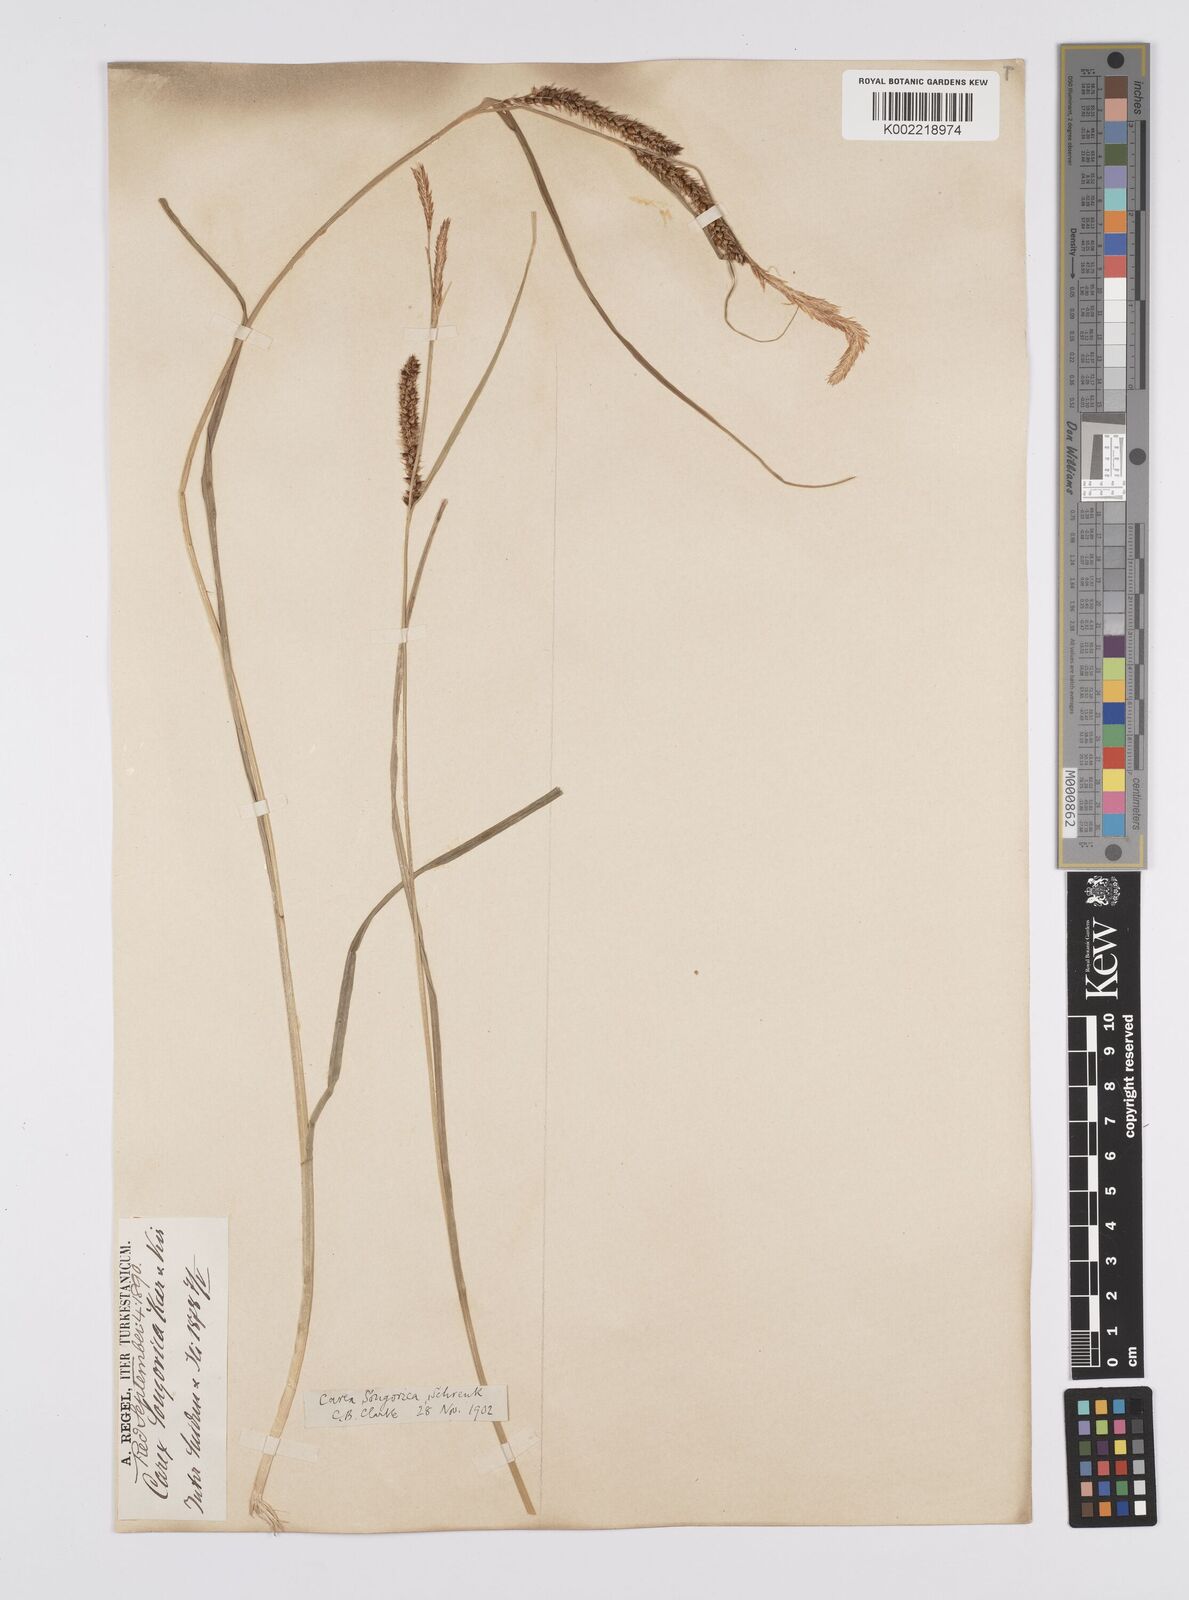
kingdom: Plantae
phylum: Tracheophyta
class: Liliopsida
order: Poales
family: Cyperaceae
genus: Carex
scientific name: Carex heterostachya
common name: Different-spike sedge
